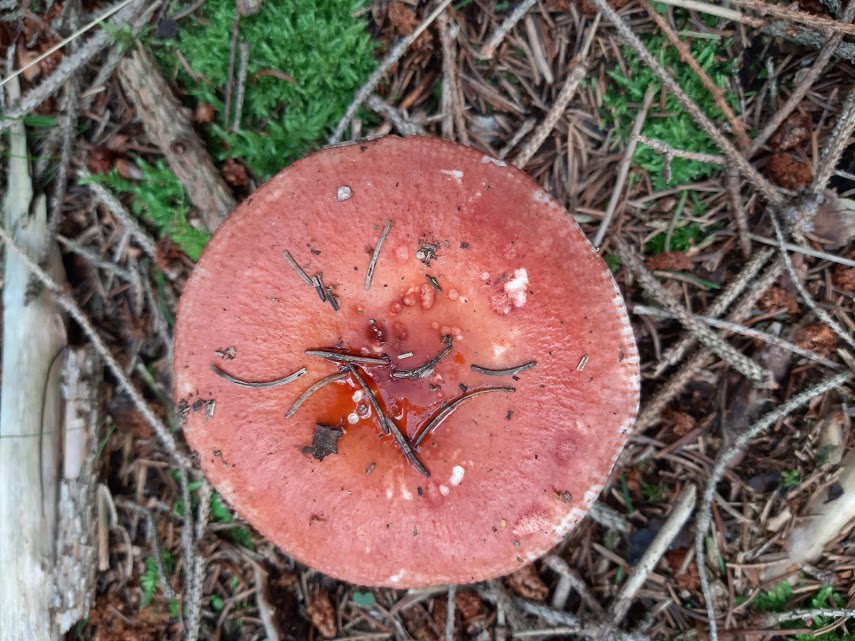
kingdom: Fungi
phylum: Basidiomycota
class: Agaricomycetes
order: Russulales
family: Russulaceae
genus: Russula
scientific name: Russula velenovskyi
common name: orangerød skørhat
